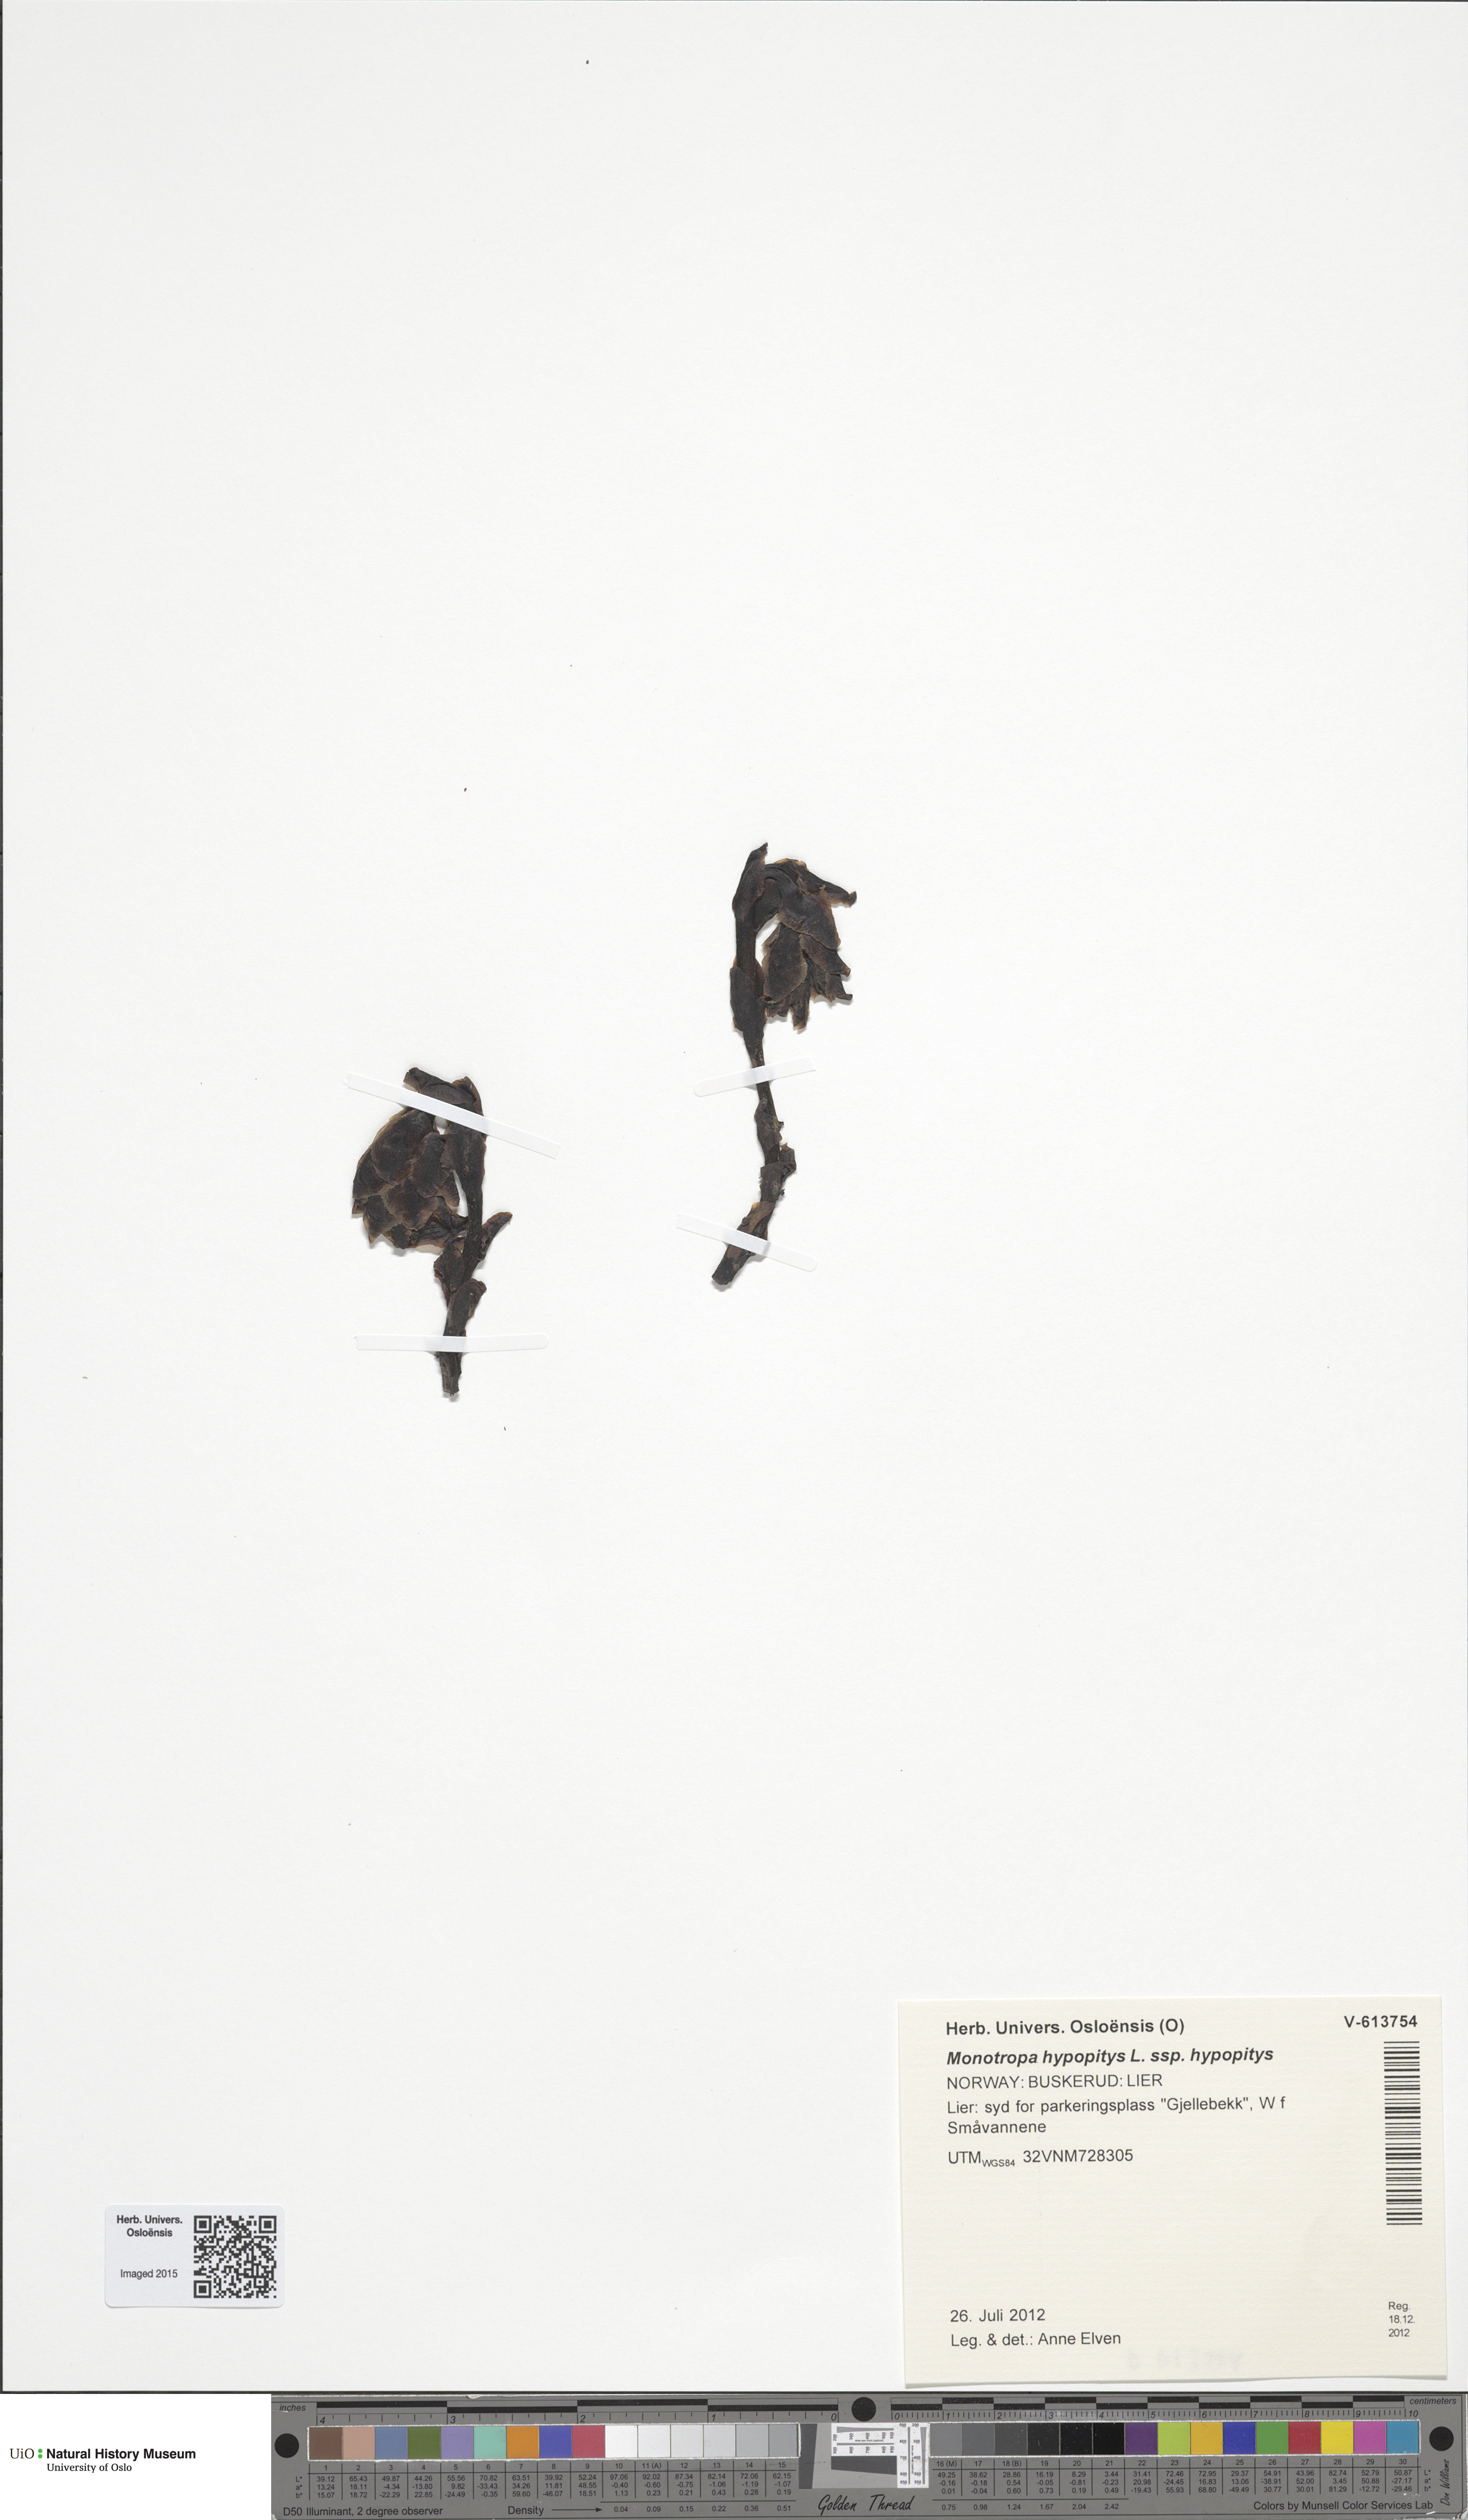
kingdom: Plantae
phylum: Tracheophyta
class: Magnoliopsida
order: Ericales
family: Ericaceae
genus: Hypopitys
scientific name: Hypopitys monotropa
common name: Yellow bird's-nest
